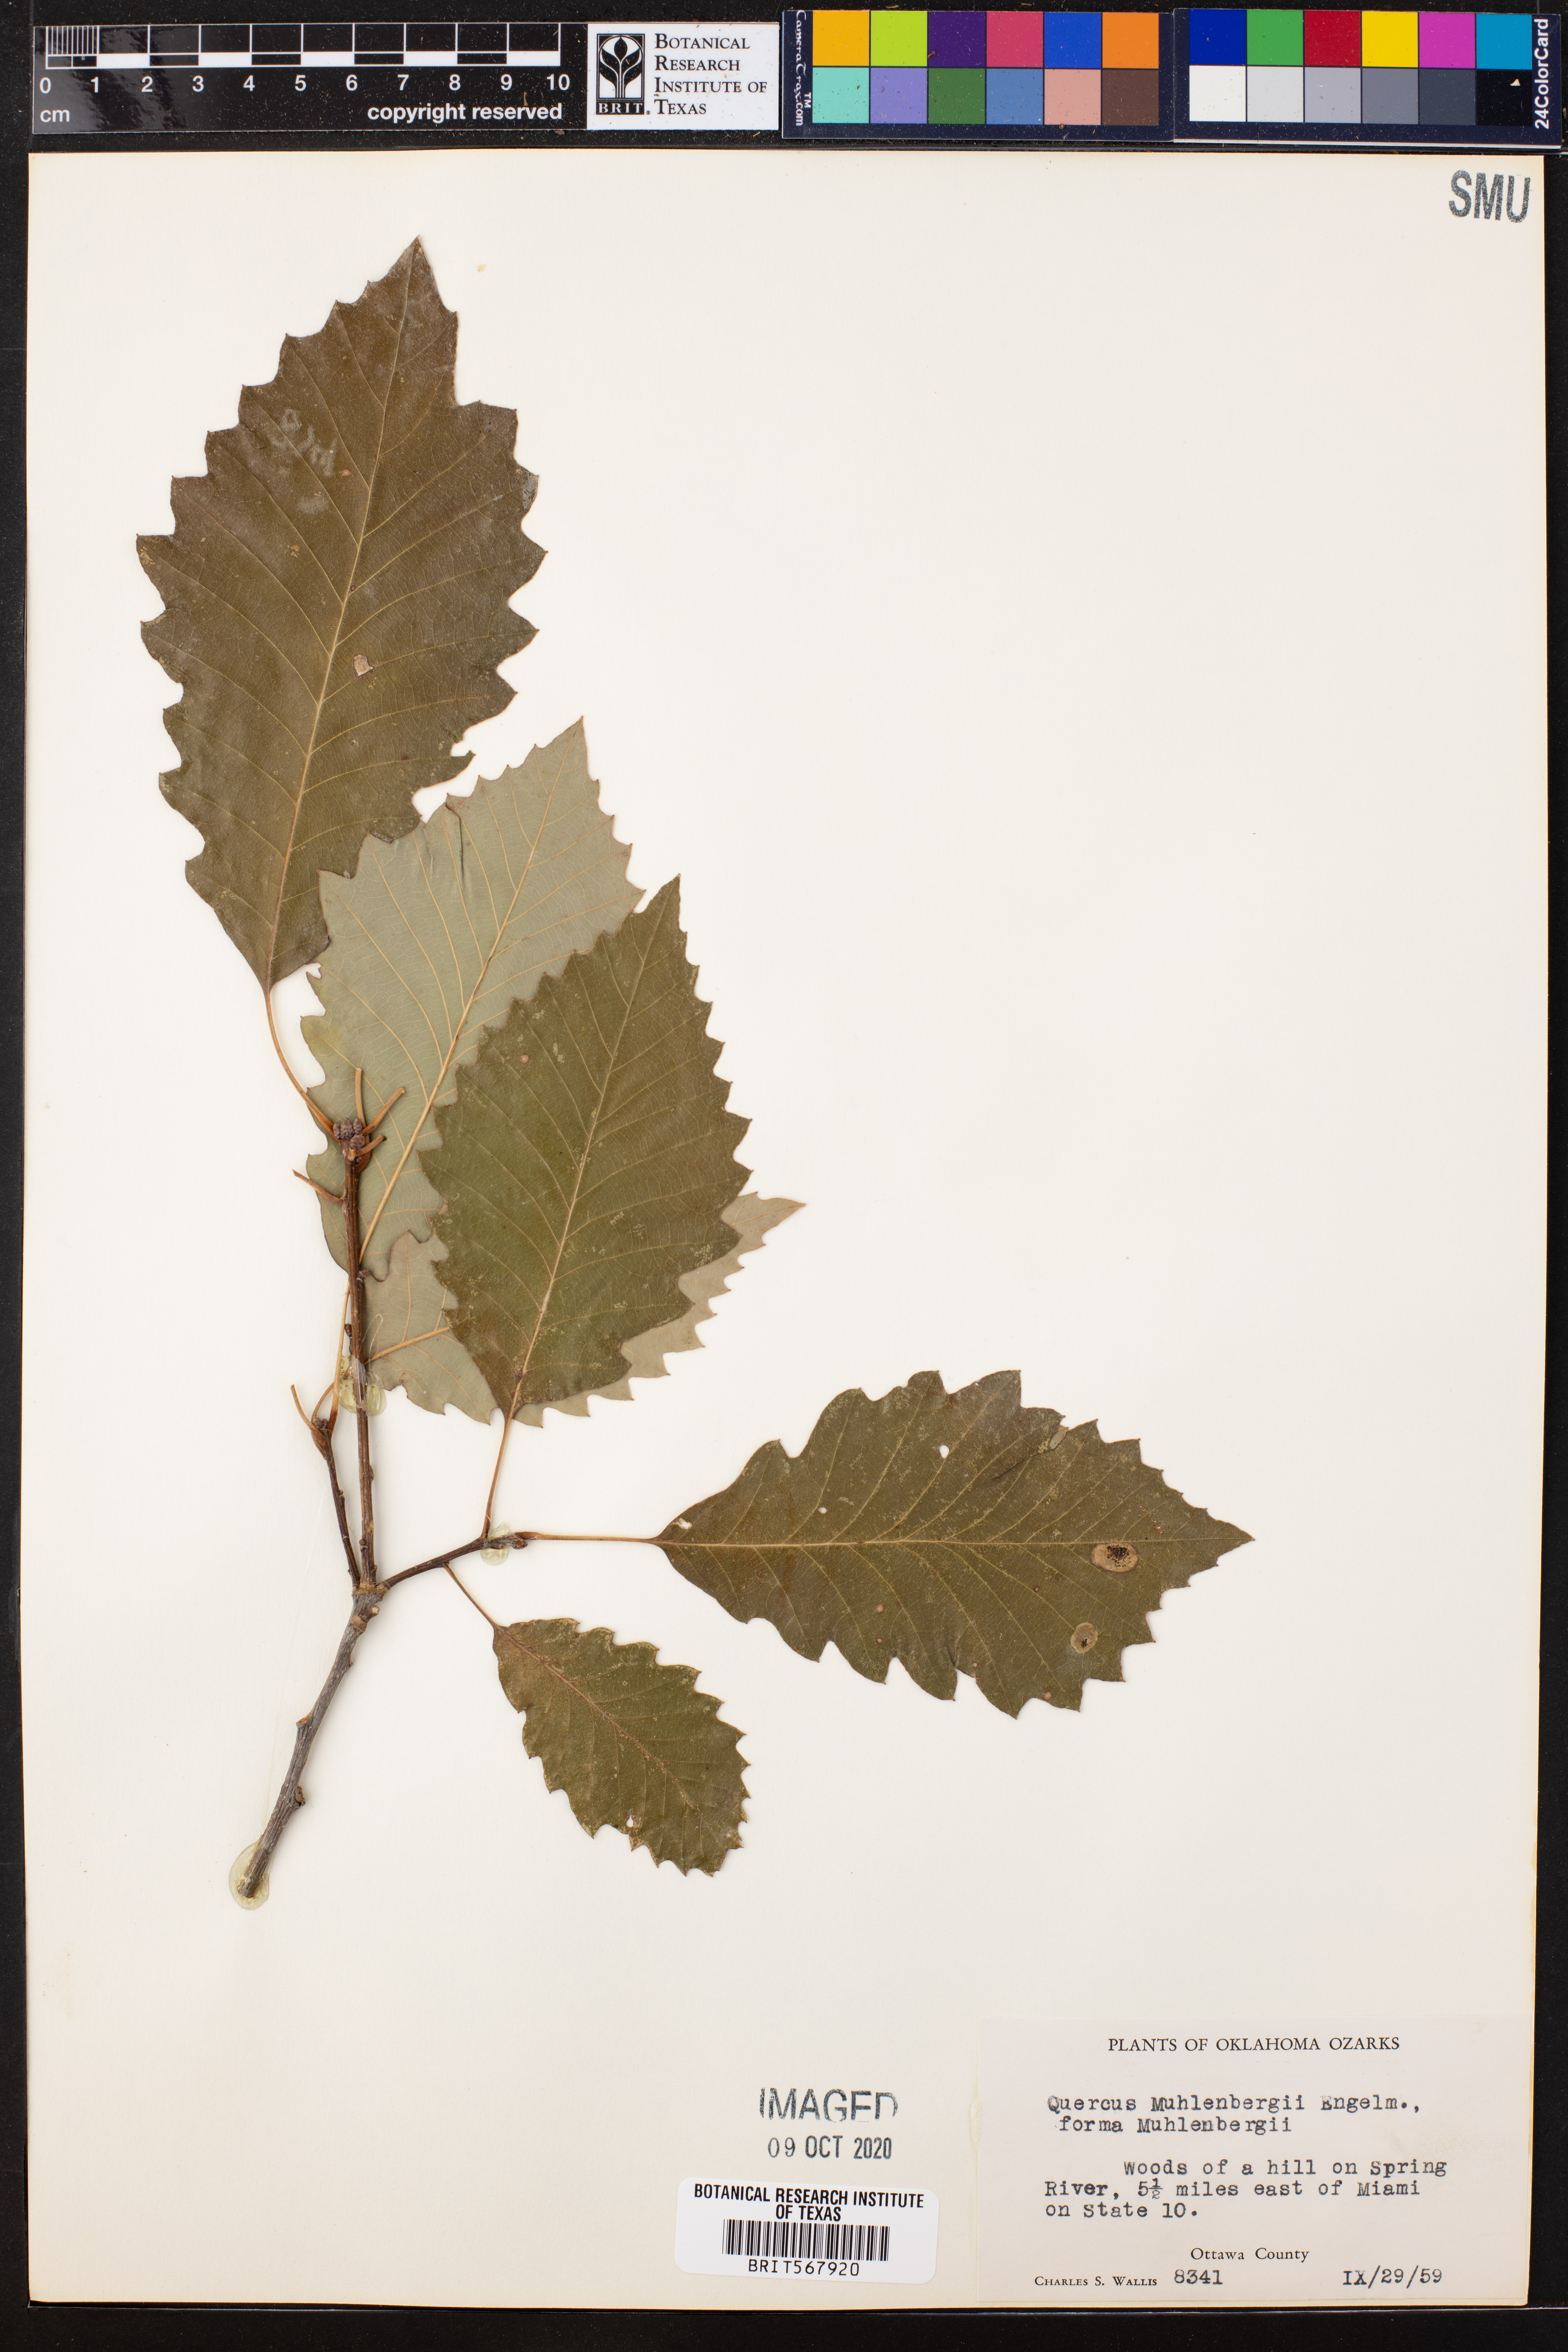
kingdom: Plantae
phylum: Tracheophyta
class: Magnoliopsida
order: Fagales
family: Fagaceae
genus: Quercus
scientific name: Quercus muehlenbergii
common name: Chinkapin oak
